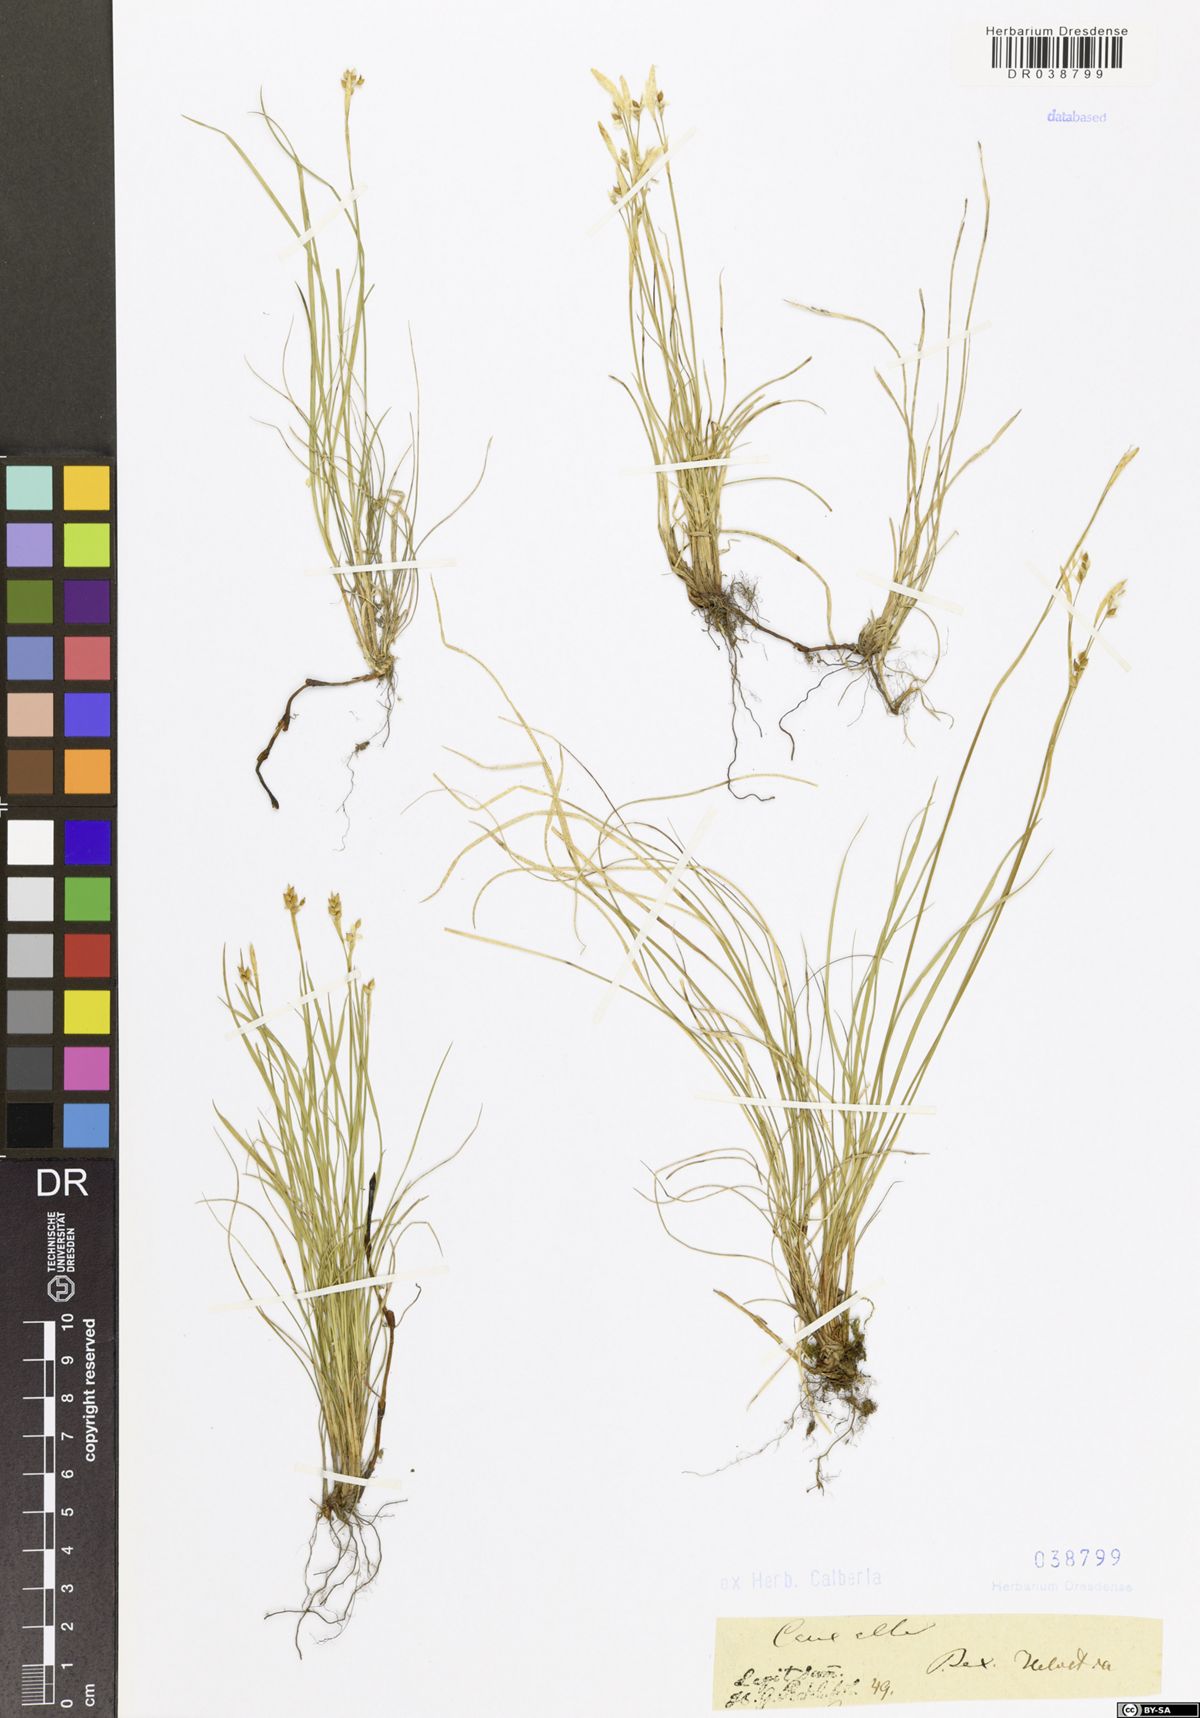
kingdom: Plantae
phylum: Tracheophyta
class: Liliopsida
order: Poales
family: Cyperaceae
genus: Carex
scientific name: Carex alba
